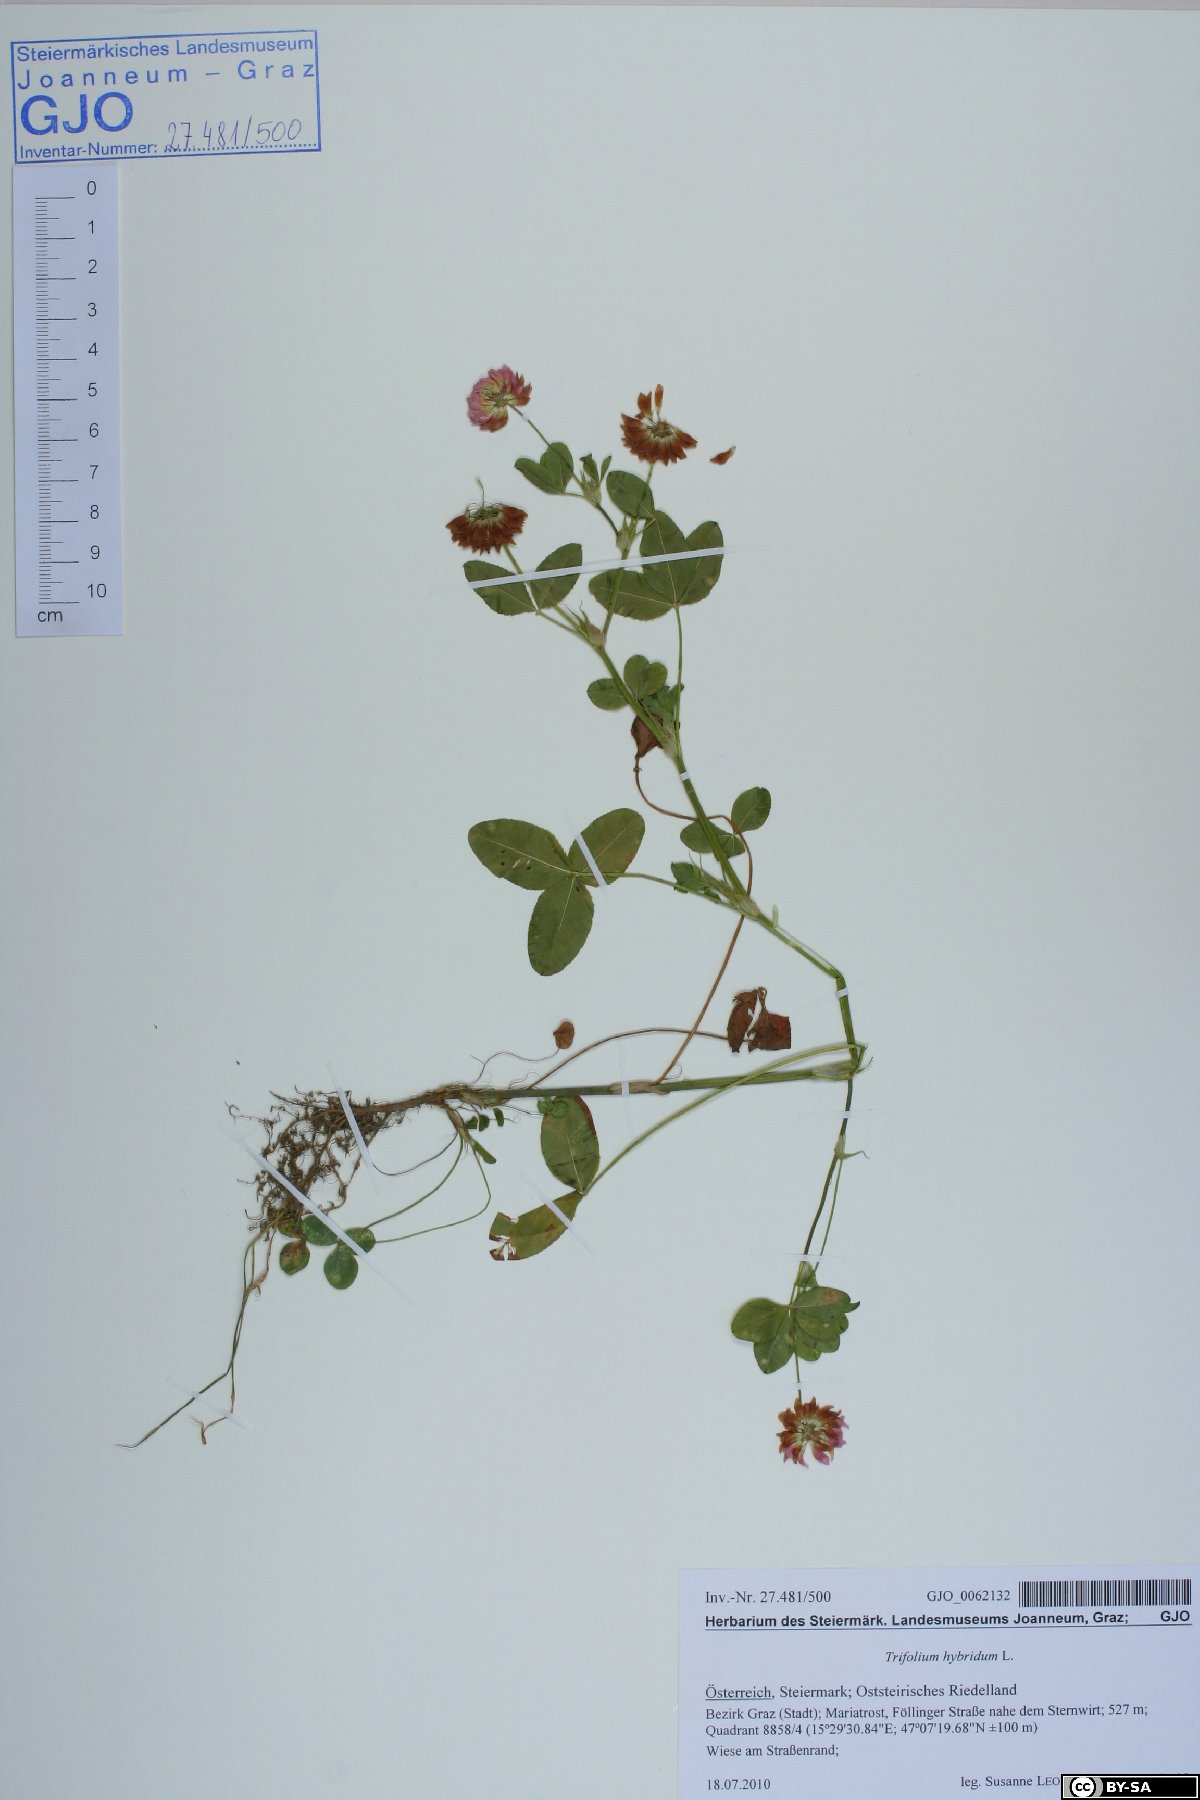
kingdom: Plantae
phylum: Tracheophyta
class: Magnoliopsida
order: Fabales
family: Fabaceae
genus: Trifolium
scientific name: Trifolium hybridum
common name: Alsike clover
